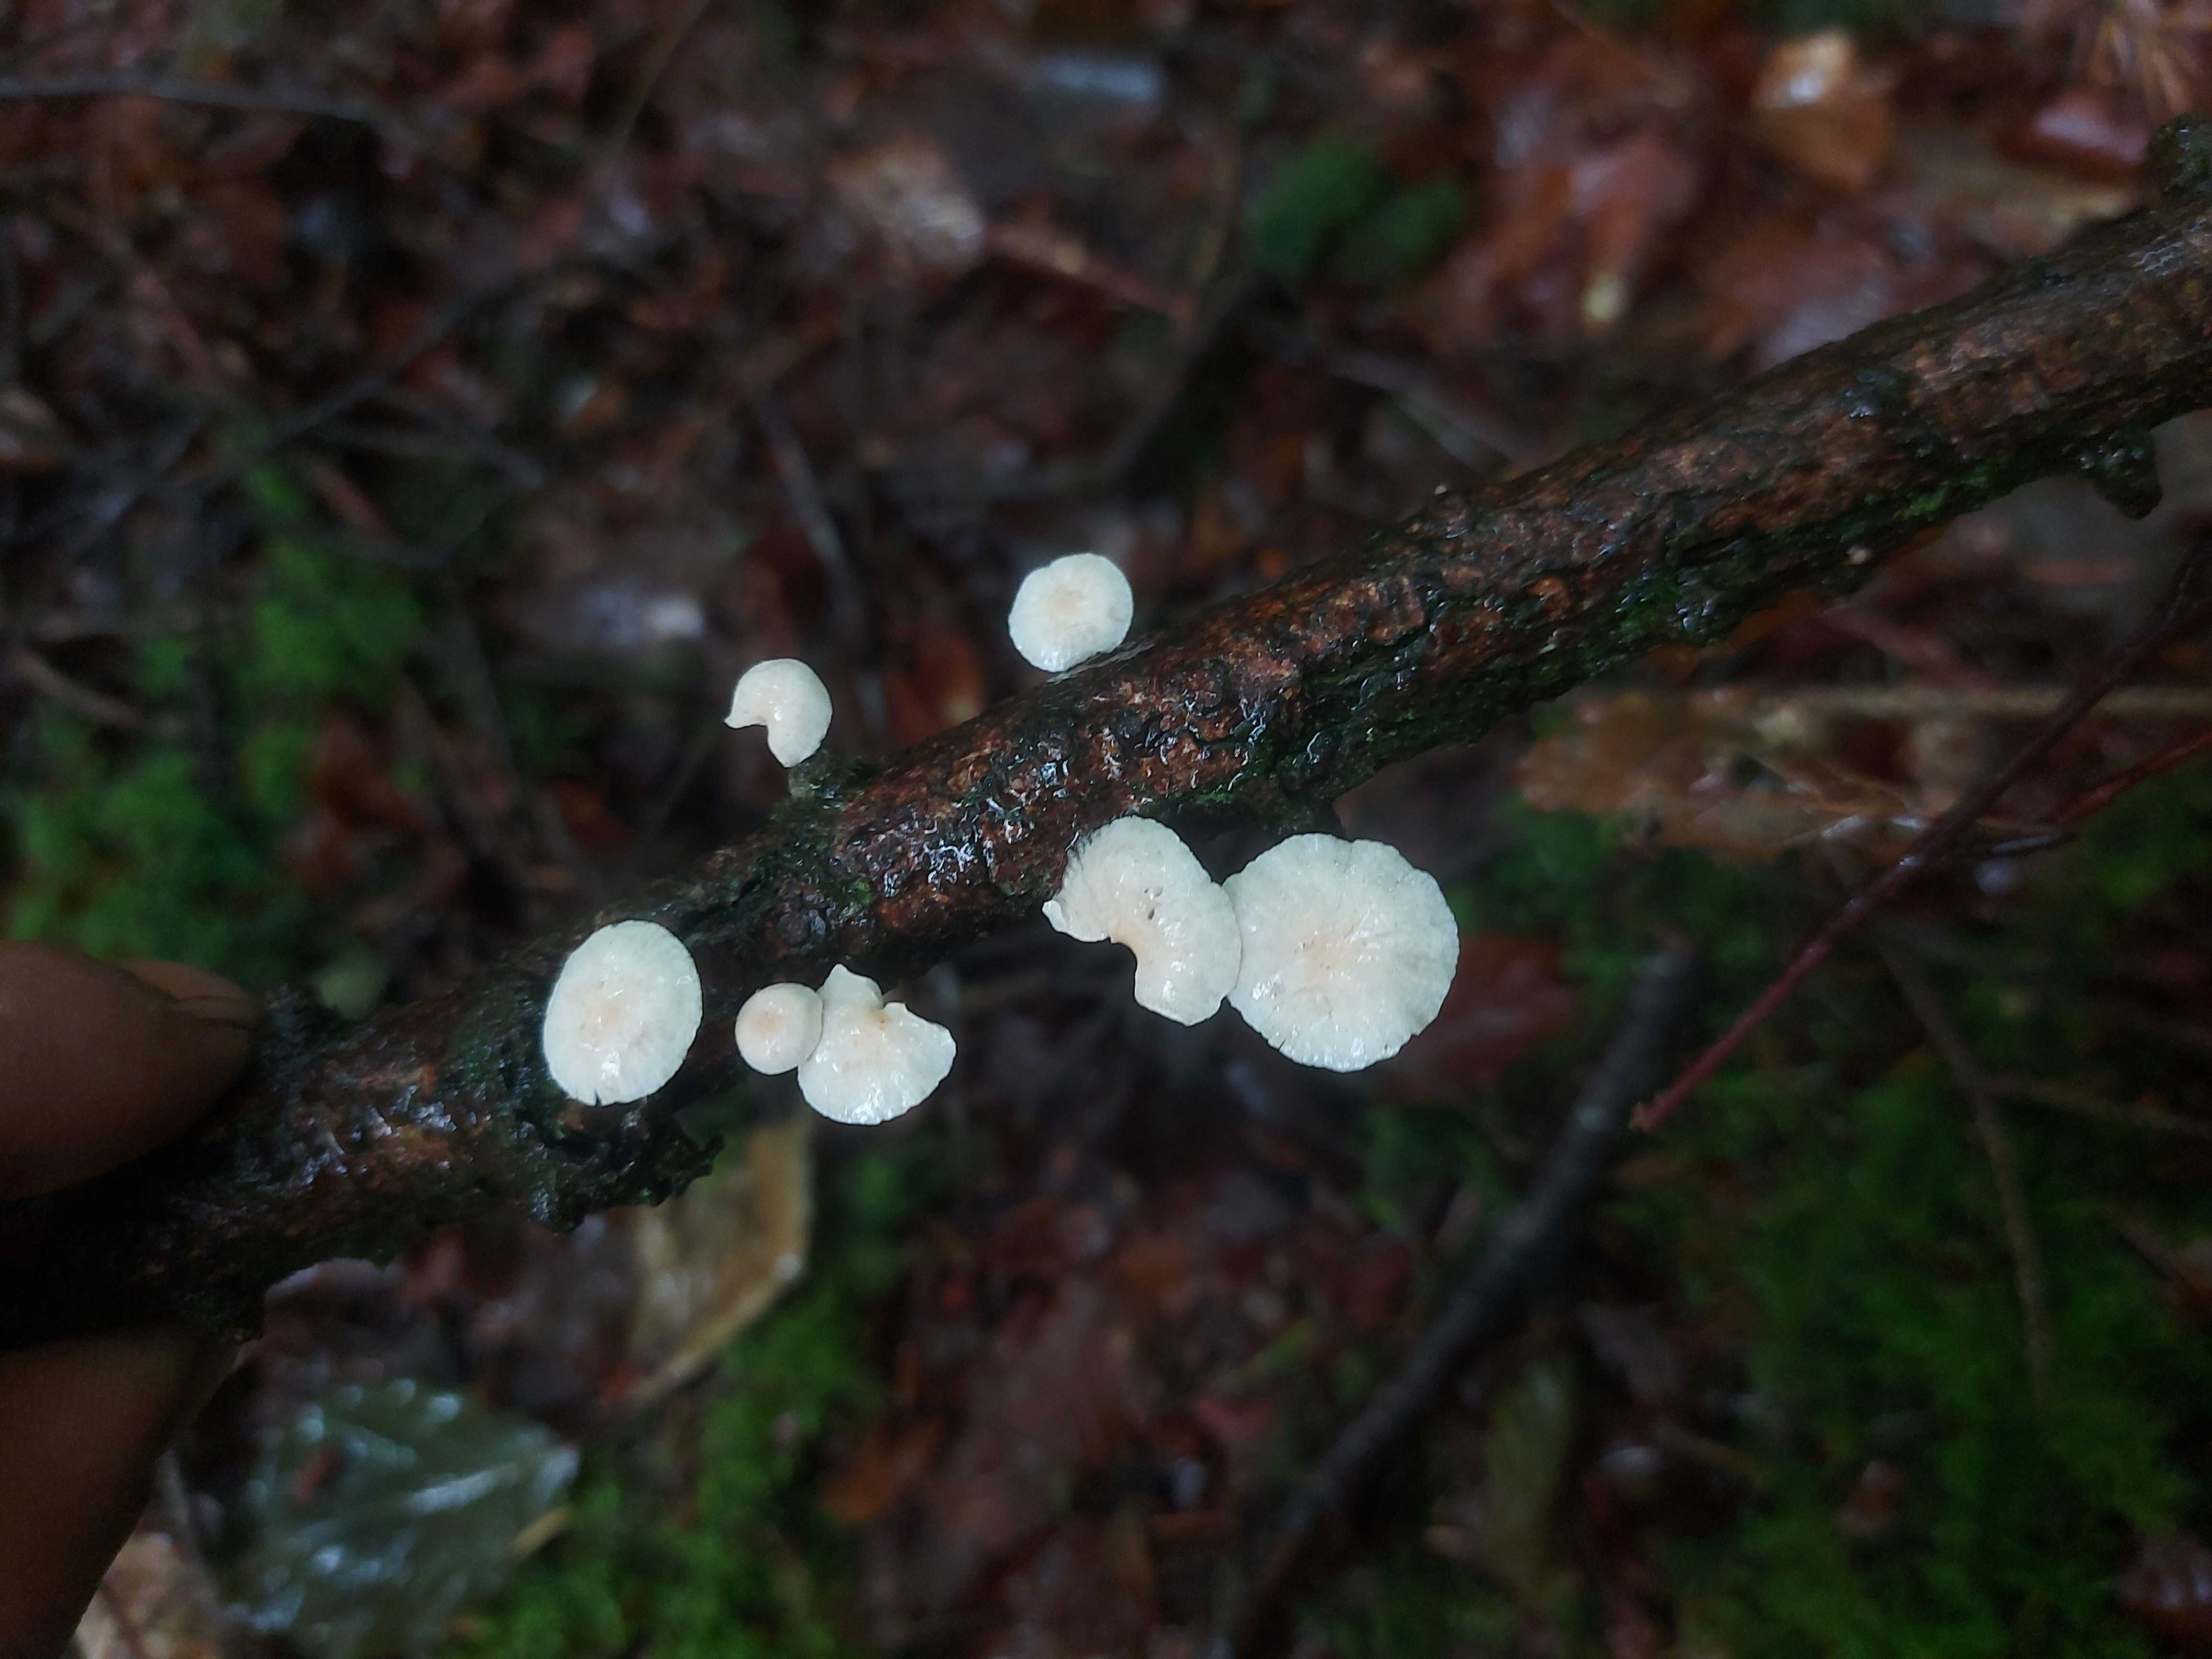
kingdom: Fungi
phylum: Basidiomycota
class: Agaricomycetes
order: Agaricales
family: Omphalotaceae
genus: Collybiopsis
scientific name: Collybiopsis ramealis
